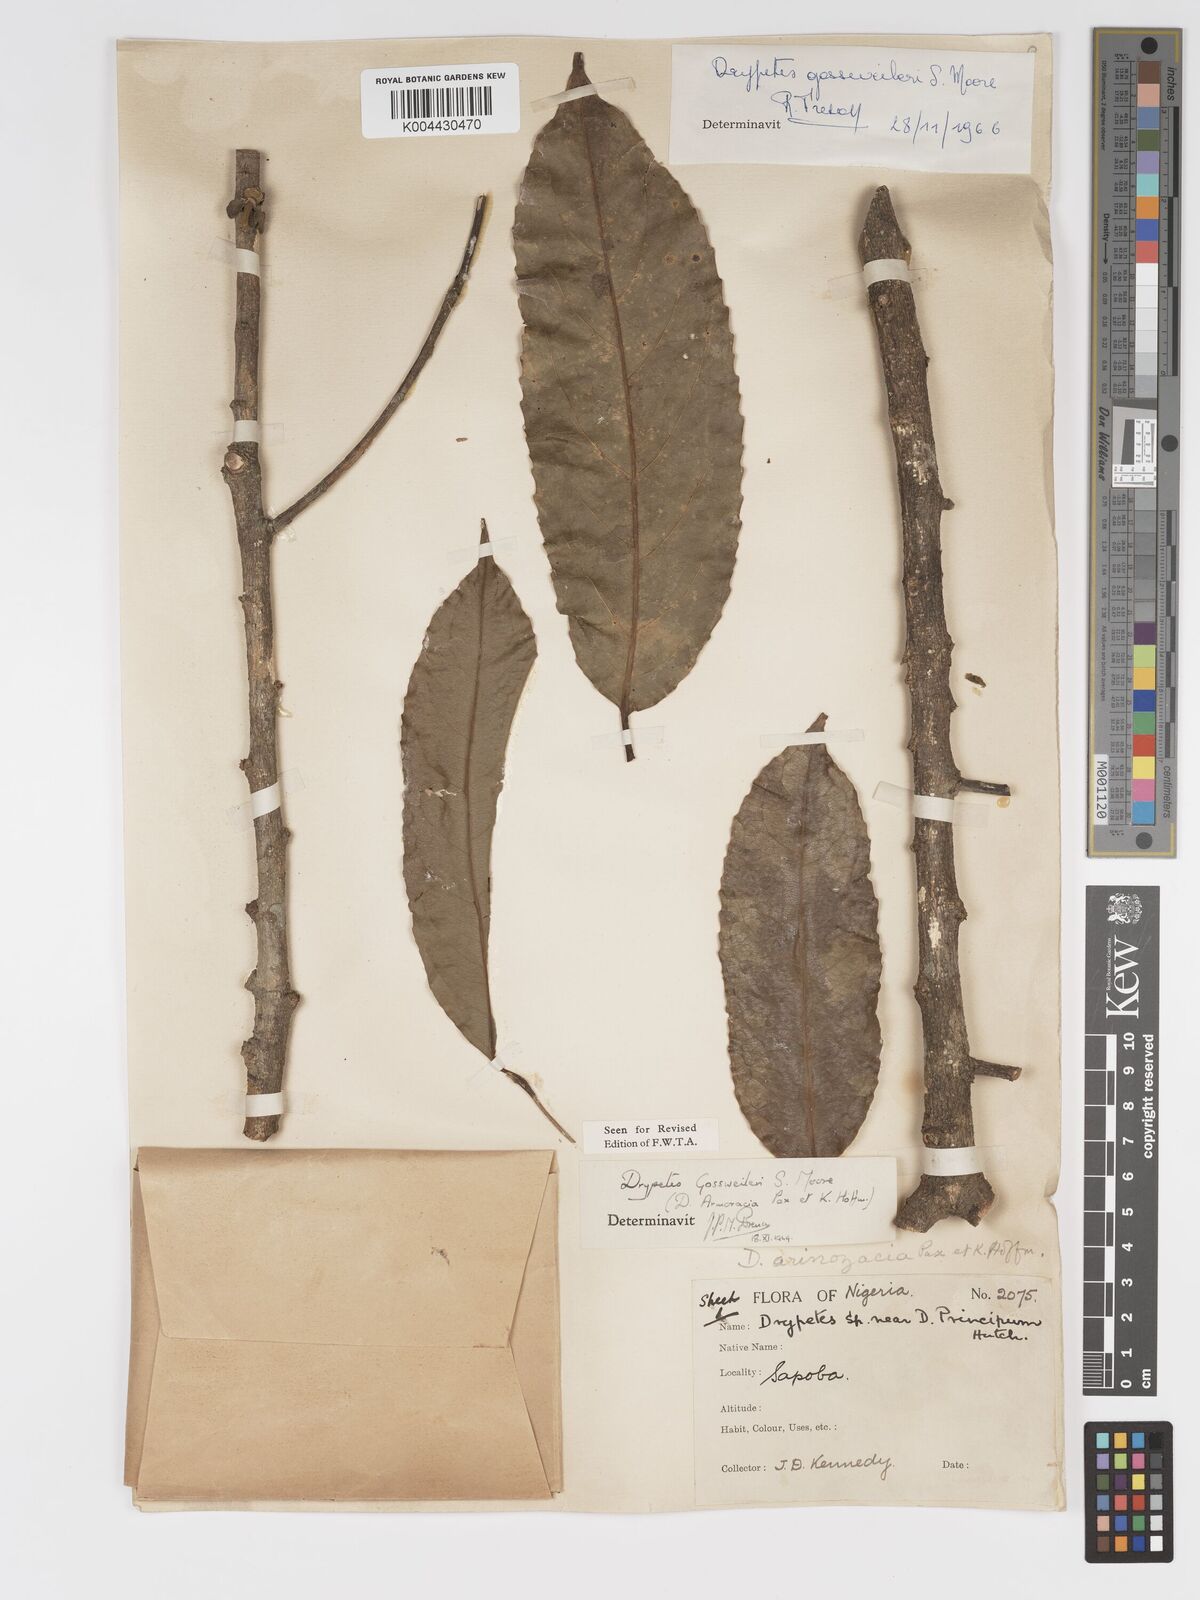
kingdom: Plantae
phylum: Tracheophyta
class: Magnoliopsida
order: Malpighiales
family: Putranjivaceae
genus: Drypetes
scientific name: Drypetes gossweileri
